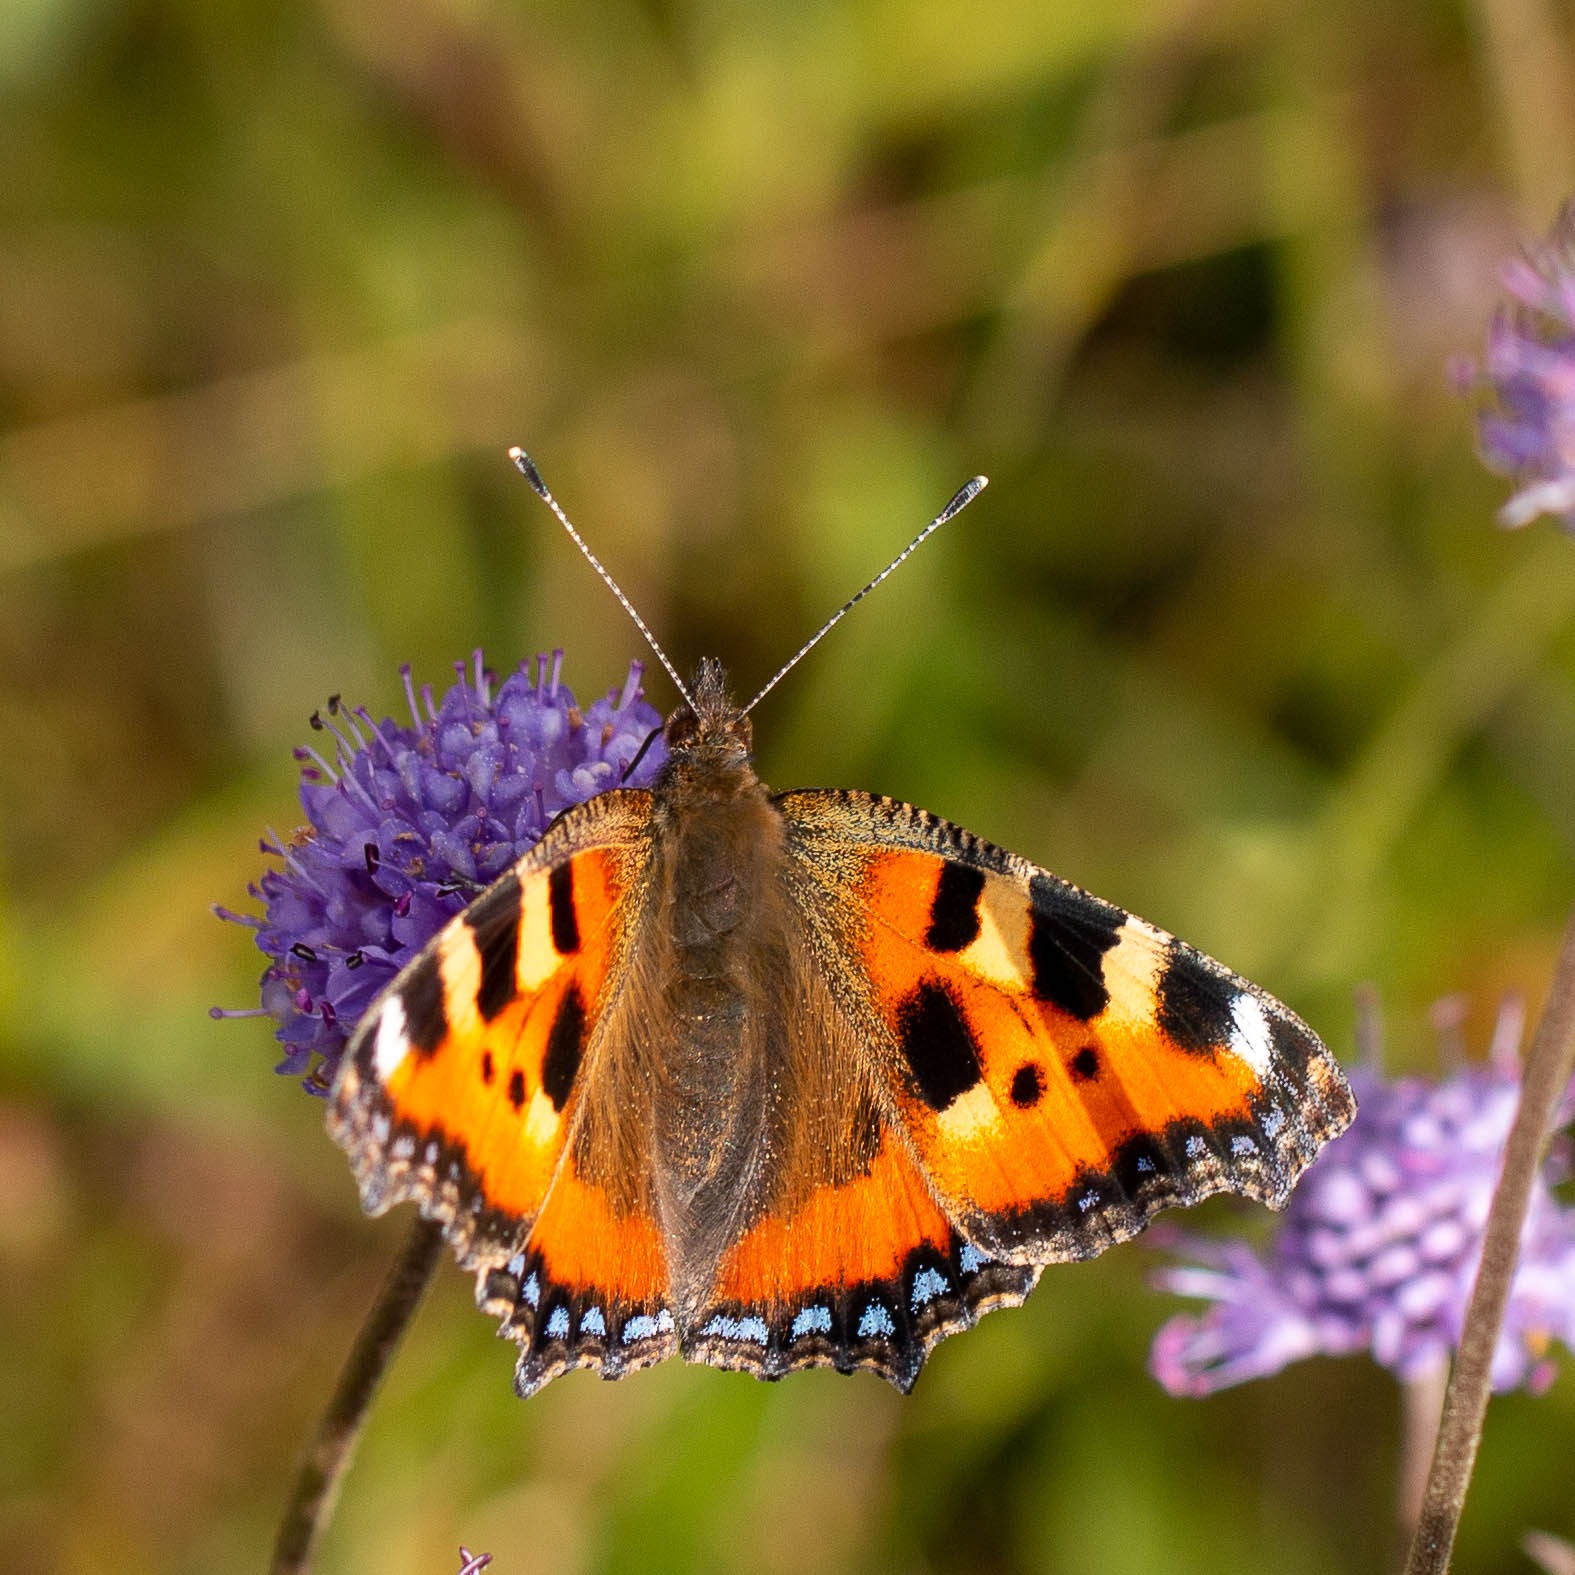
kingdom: Animalia
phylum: Arthropoda
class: Insecta
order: Lepidoptera
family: Nymphalidae
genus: Aglais
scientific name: Aglais urticae
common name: Nældens takvinge
